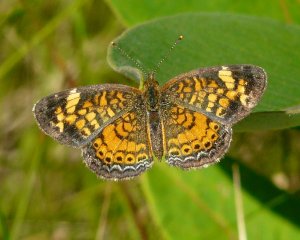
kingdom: Animalia
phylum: Arthropoda
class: Insecta
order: Lepidoptera
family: Nymphalidae
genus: Phyciodes
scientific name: Phyciodes tharos
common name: Northern Crescent
